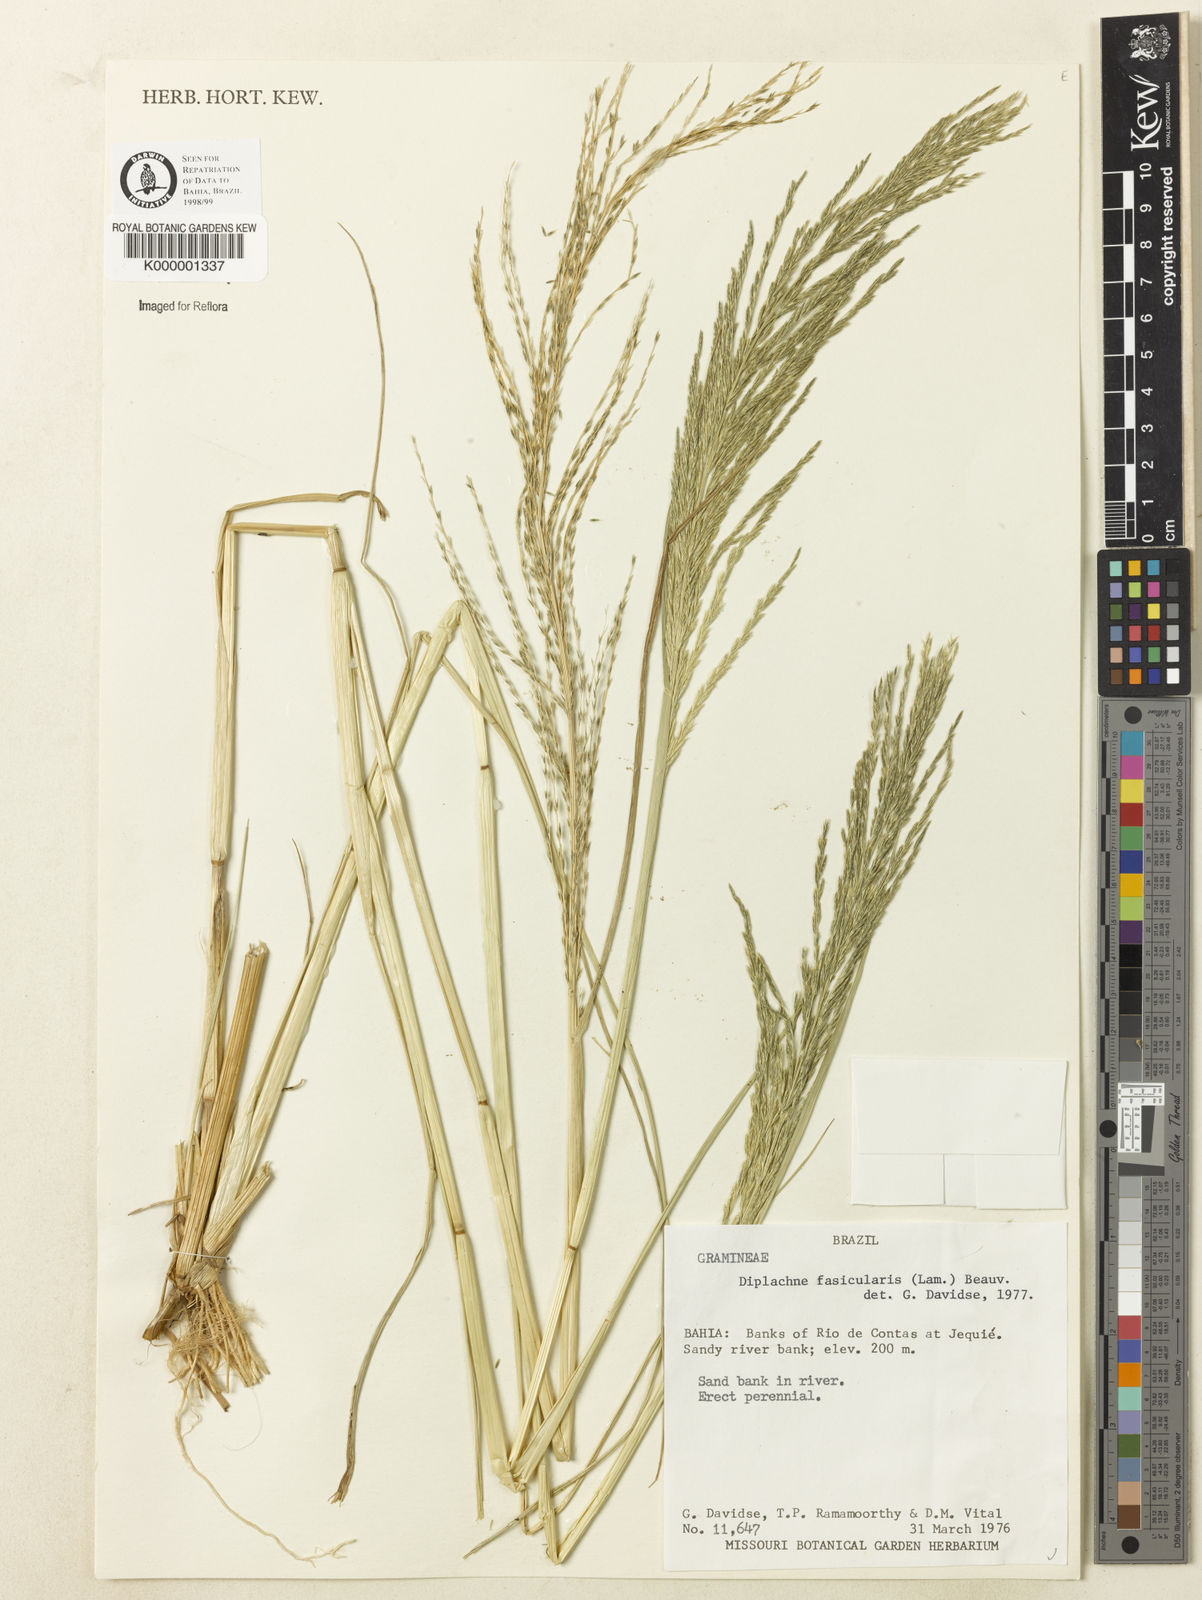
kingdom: Plantae
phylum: Tracheophyta
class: Liliopsida
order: Poales
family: Poaceae
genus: Diplachne
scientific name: Diplachne fusca
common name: Brown beetle grass
